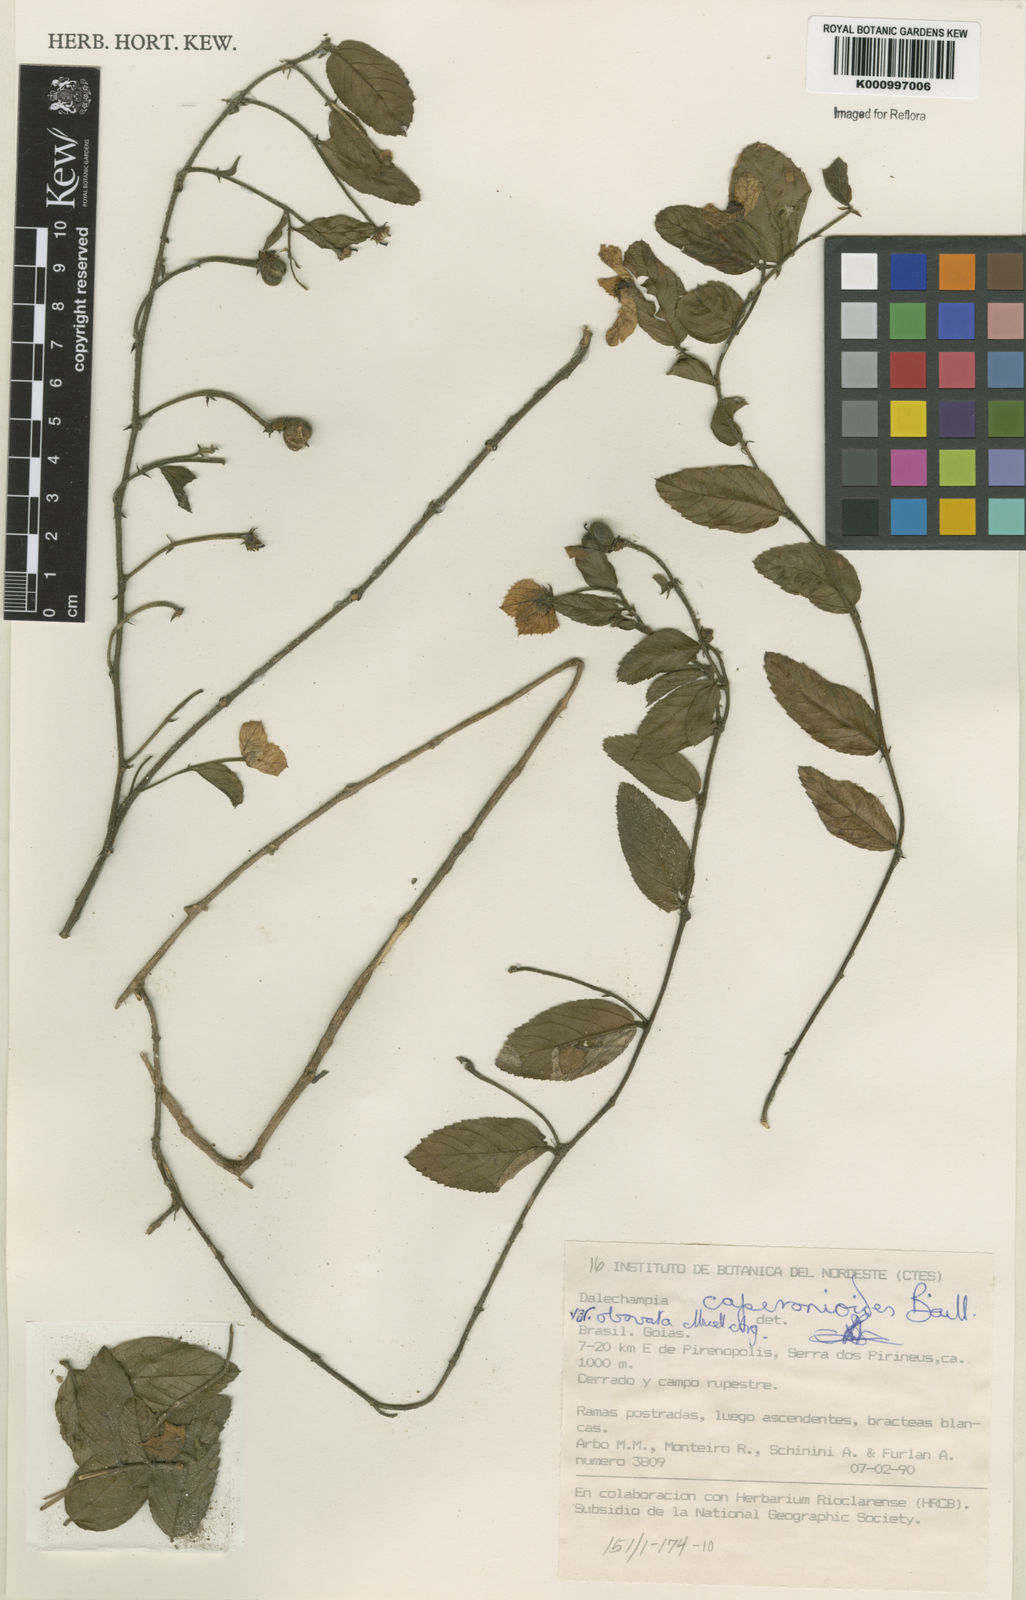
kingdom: Plantae
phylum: Tracheophyta
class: Magnoliopsida
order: Malpighiales
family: Euphorbiaceae
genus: Dalechampia
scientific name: Dalechampia caperonioides
